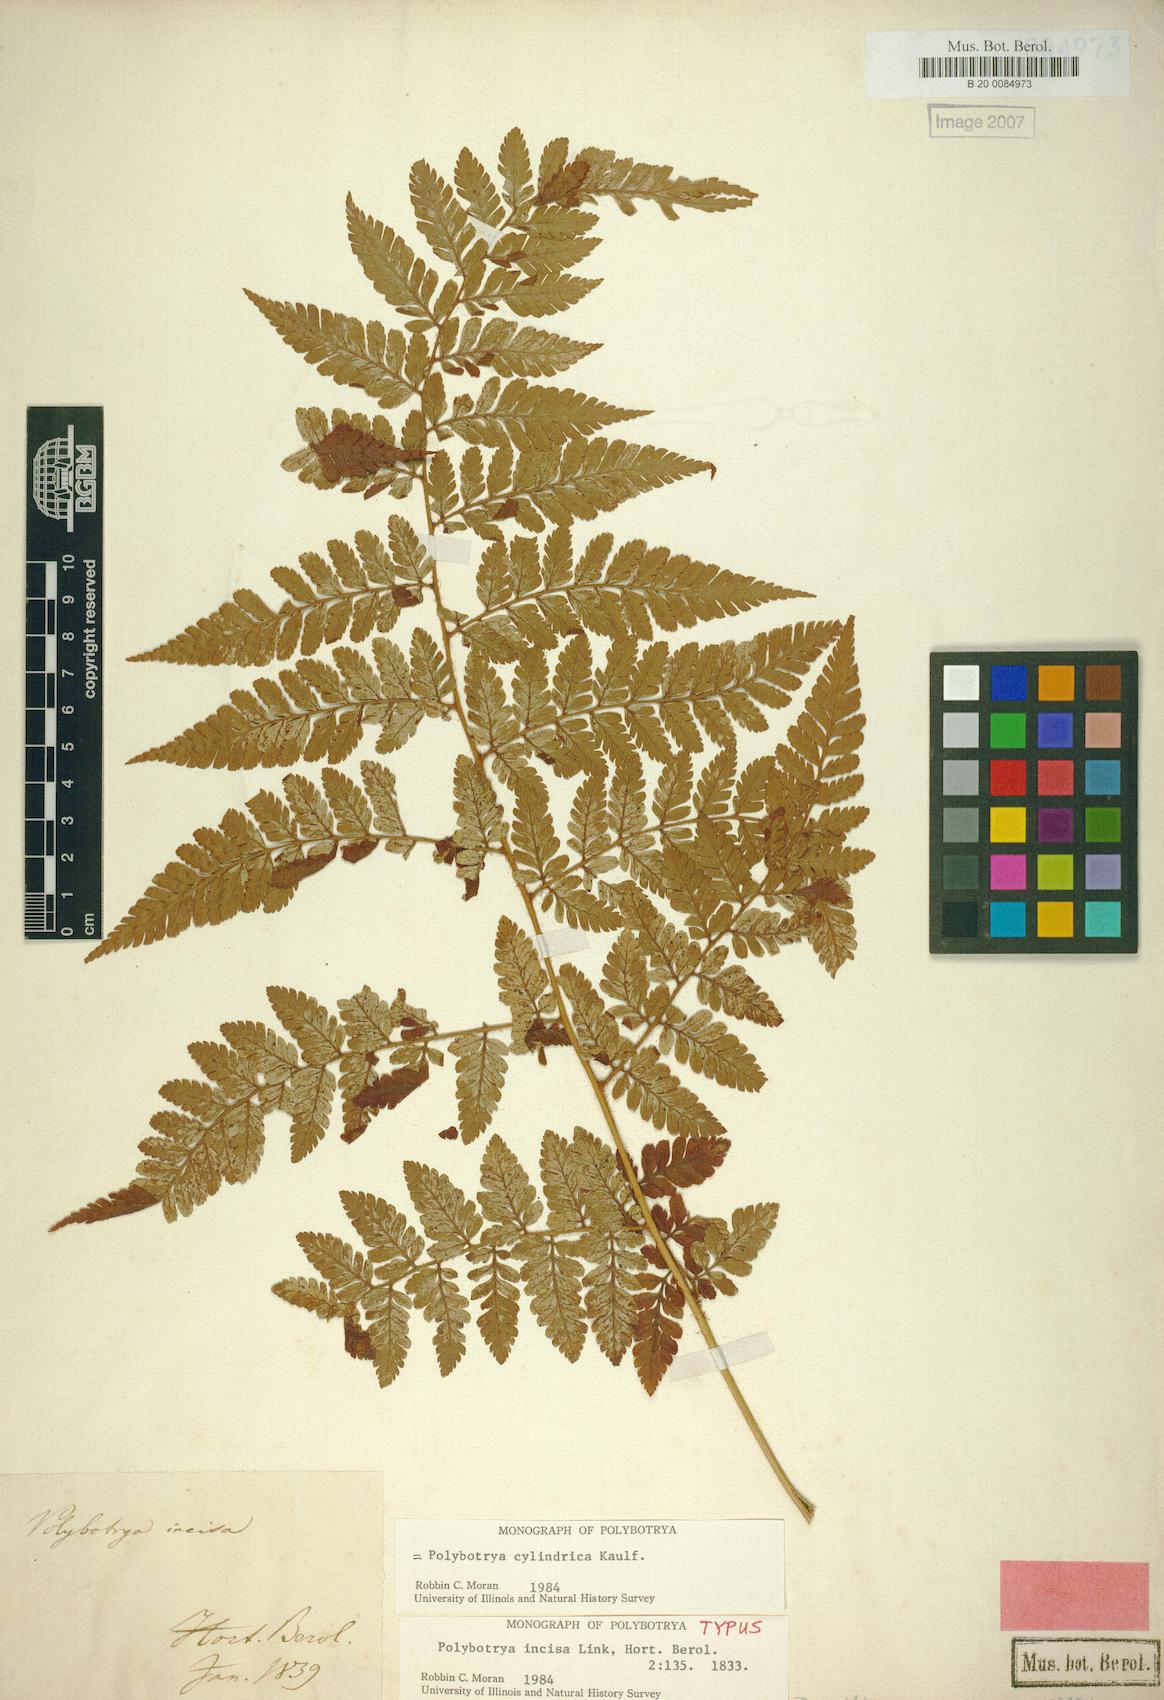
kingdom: Plantae
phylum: Tracheophyta
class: Polypodiopsida
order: Polypodiales
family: Dryopteridaceae
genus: Polybotrya
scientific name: Polybotrya cylindrica
